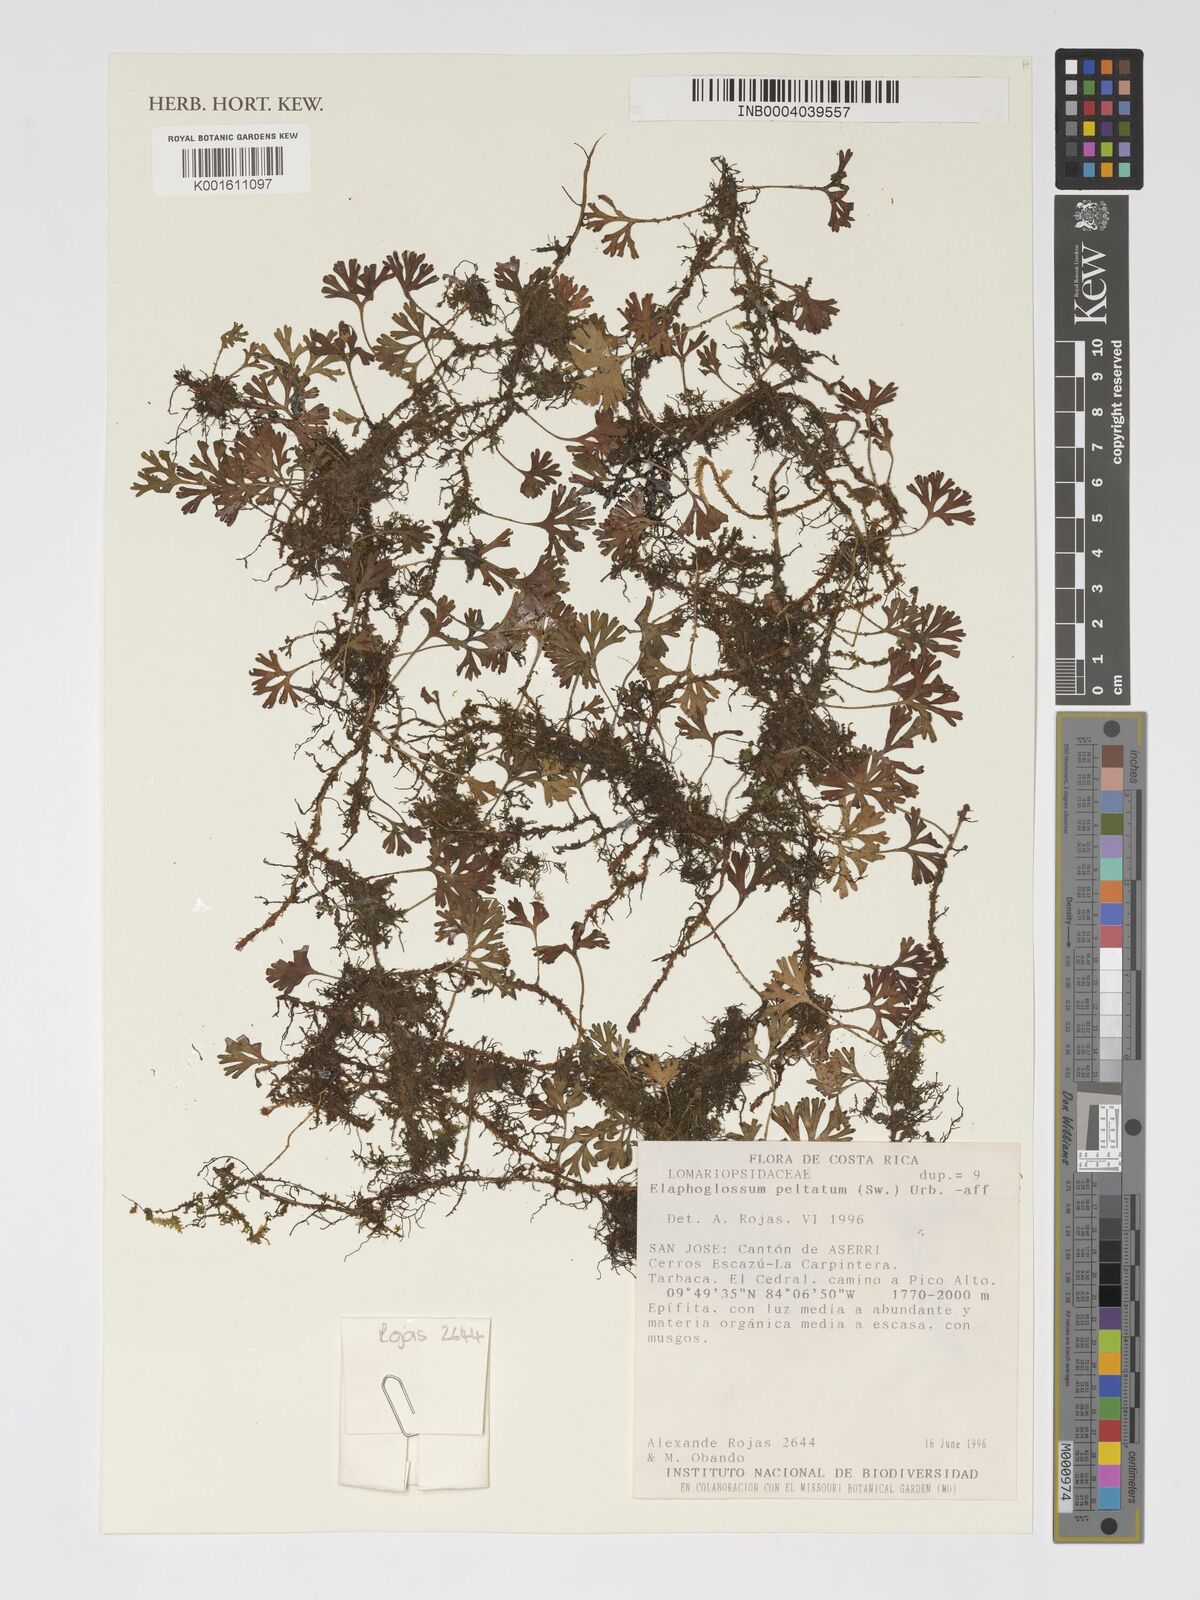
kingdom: Plantae
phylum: Tracheophyta
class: Polypodiopsida
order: Polypodiales
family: Dryopteridaceae
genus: Elaphoglossum
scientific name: Elaphoglossum peltatum
